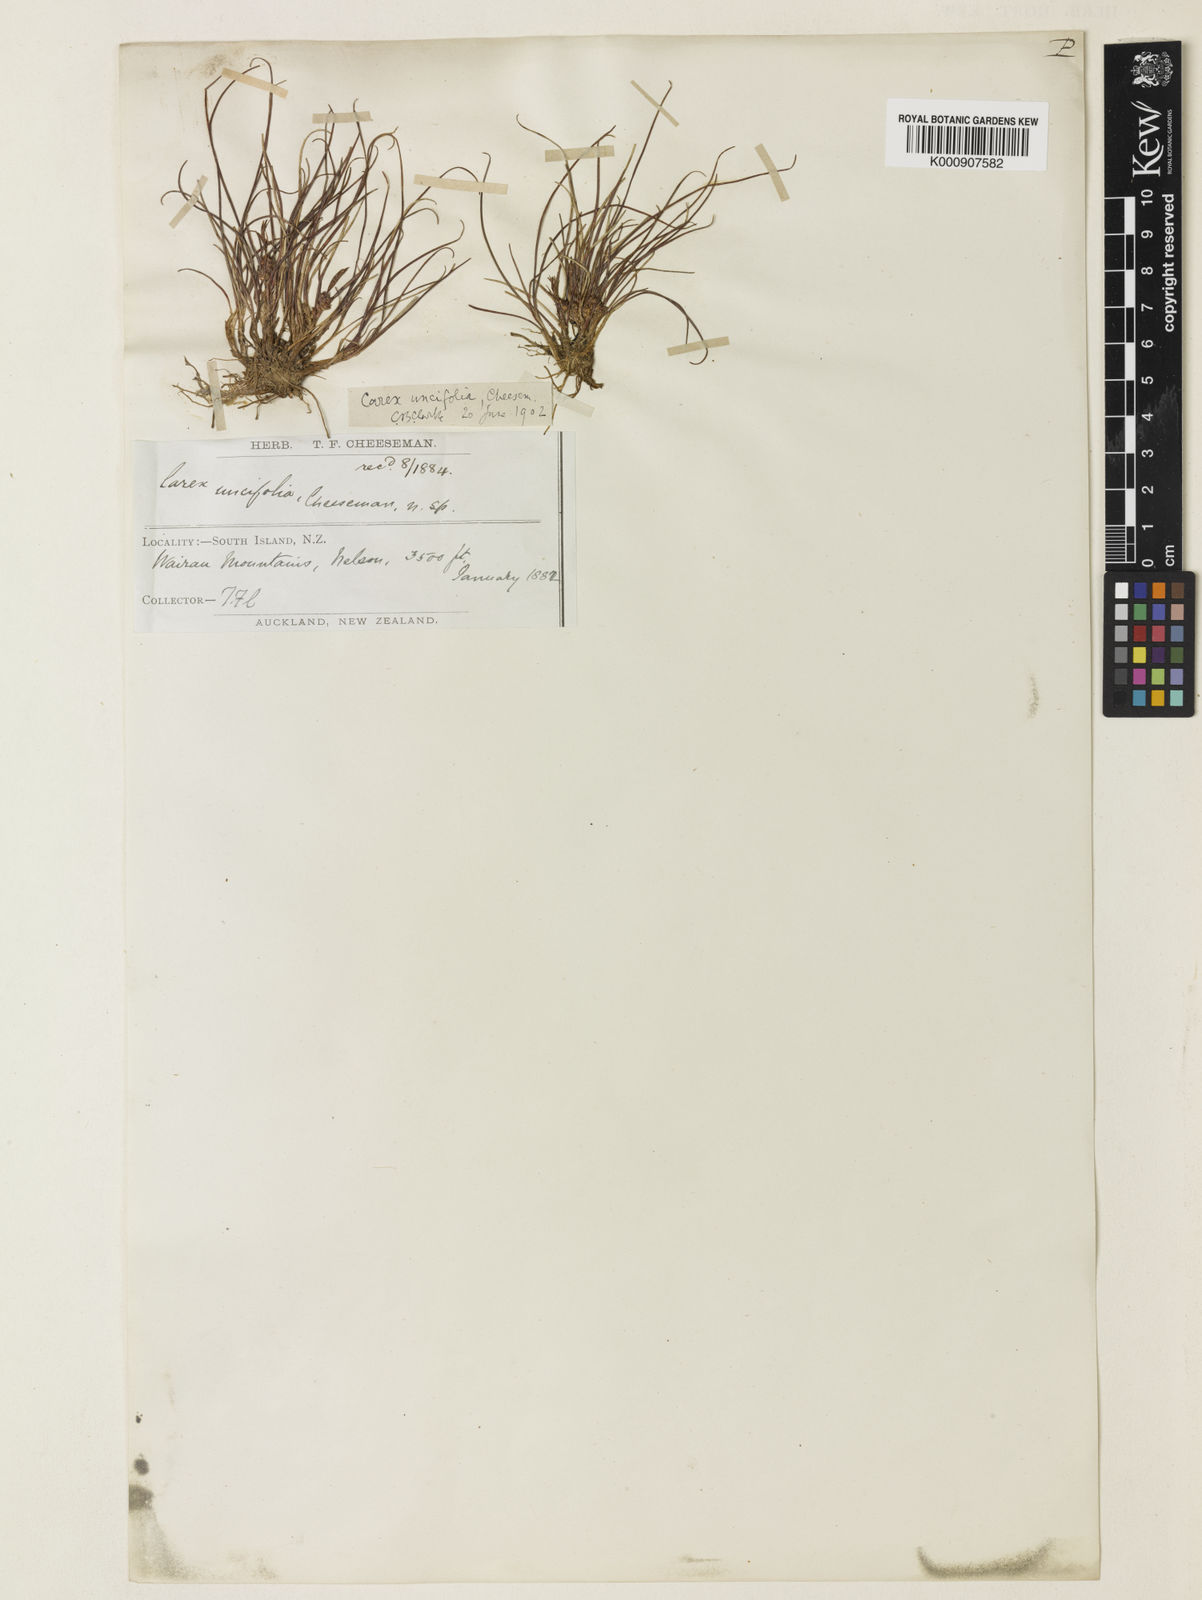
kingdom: Plantae
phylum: Tracheophyta
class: Liliopsida
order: Poales
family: Cyperaceae
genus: Carex
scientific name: Carex uncifolia
